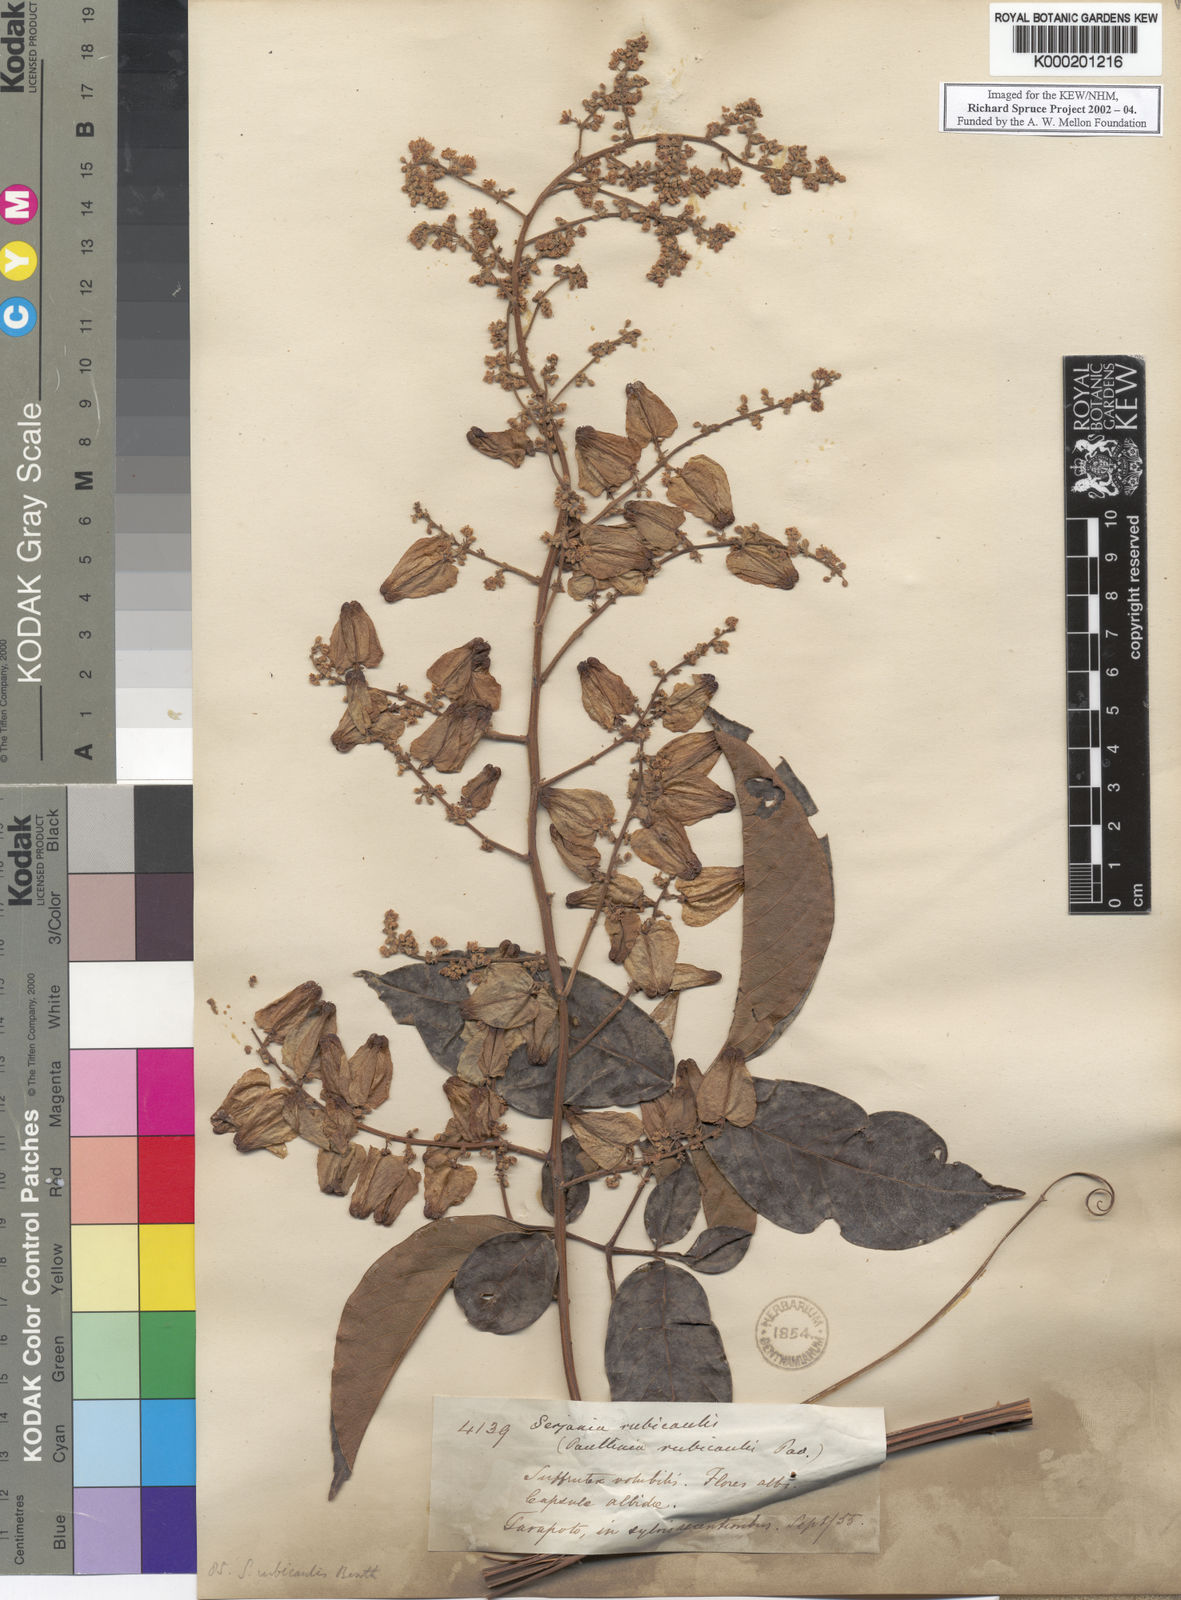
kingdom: Plantae
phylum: Tracheophyta
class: Magnoliopsida
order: Sapindales
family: Sapindaceae
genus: Serjania
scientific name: Serjania rubicaulis
